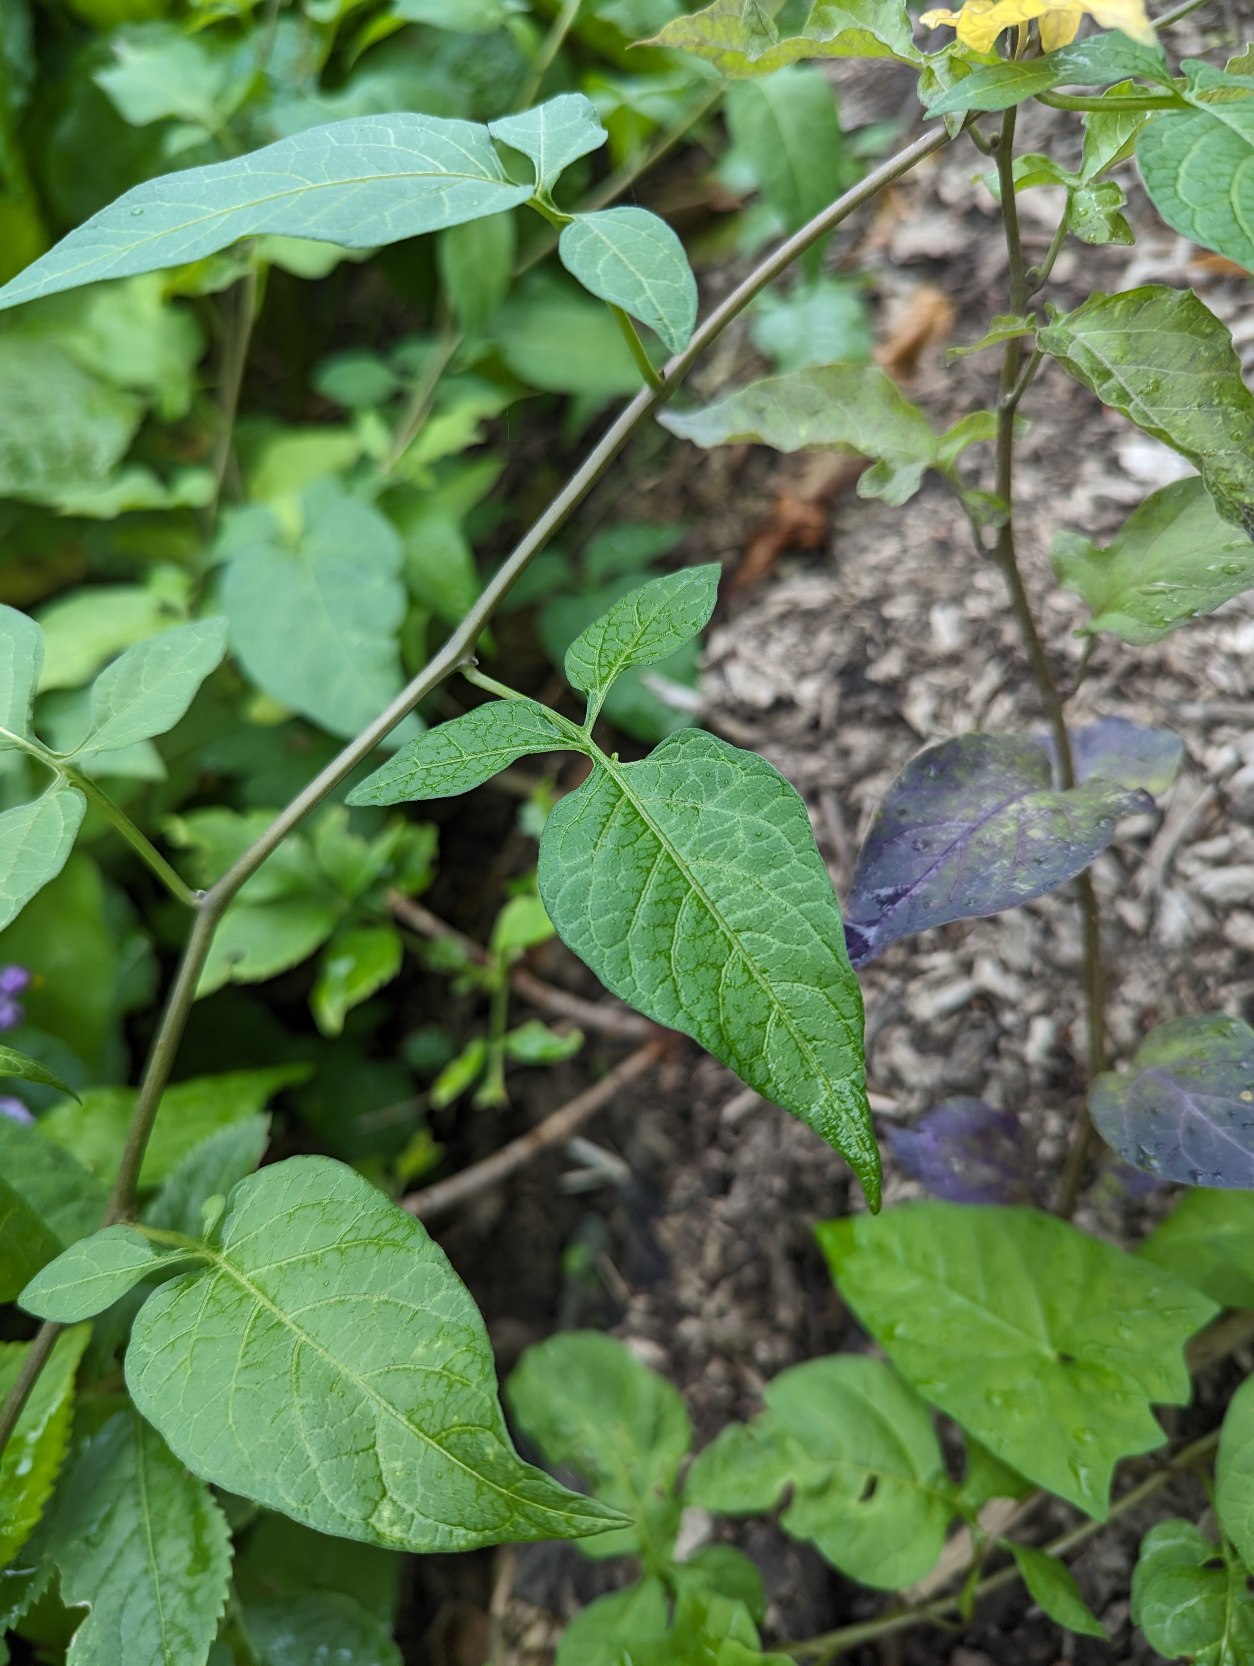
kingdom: Plantae
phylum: Tracheophyta
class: Magnoliopsida
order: Solanales
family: Solanaceae
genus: Solanum
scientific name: Solanum dulcamara
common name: Bittersød natskygge
